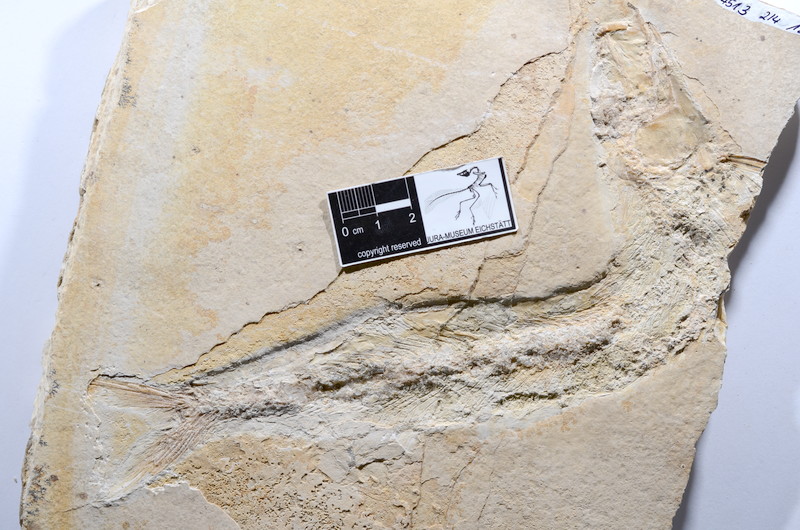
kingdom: Animalia
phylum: Chordata
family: Allothrissopidae
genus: Allothrissops
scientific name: Allothrissops
